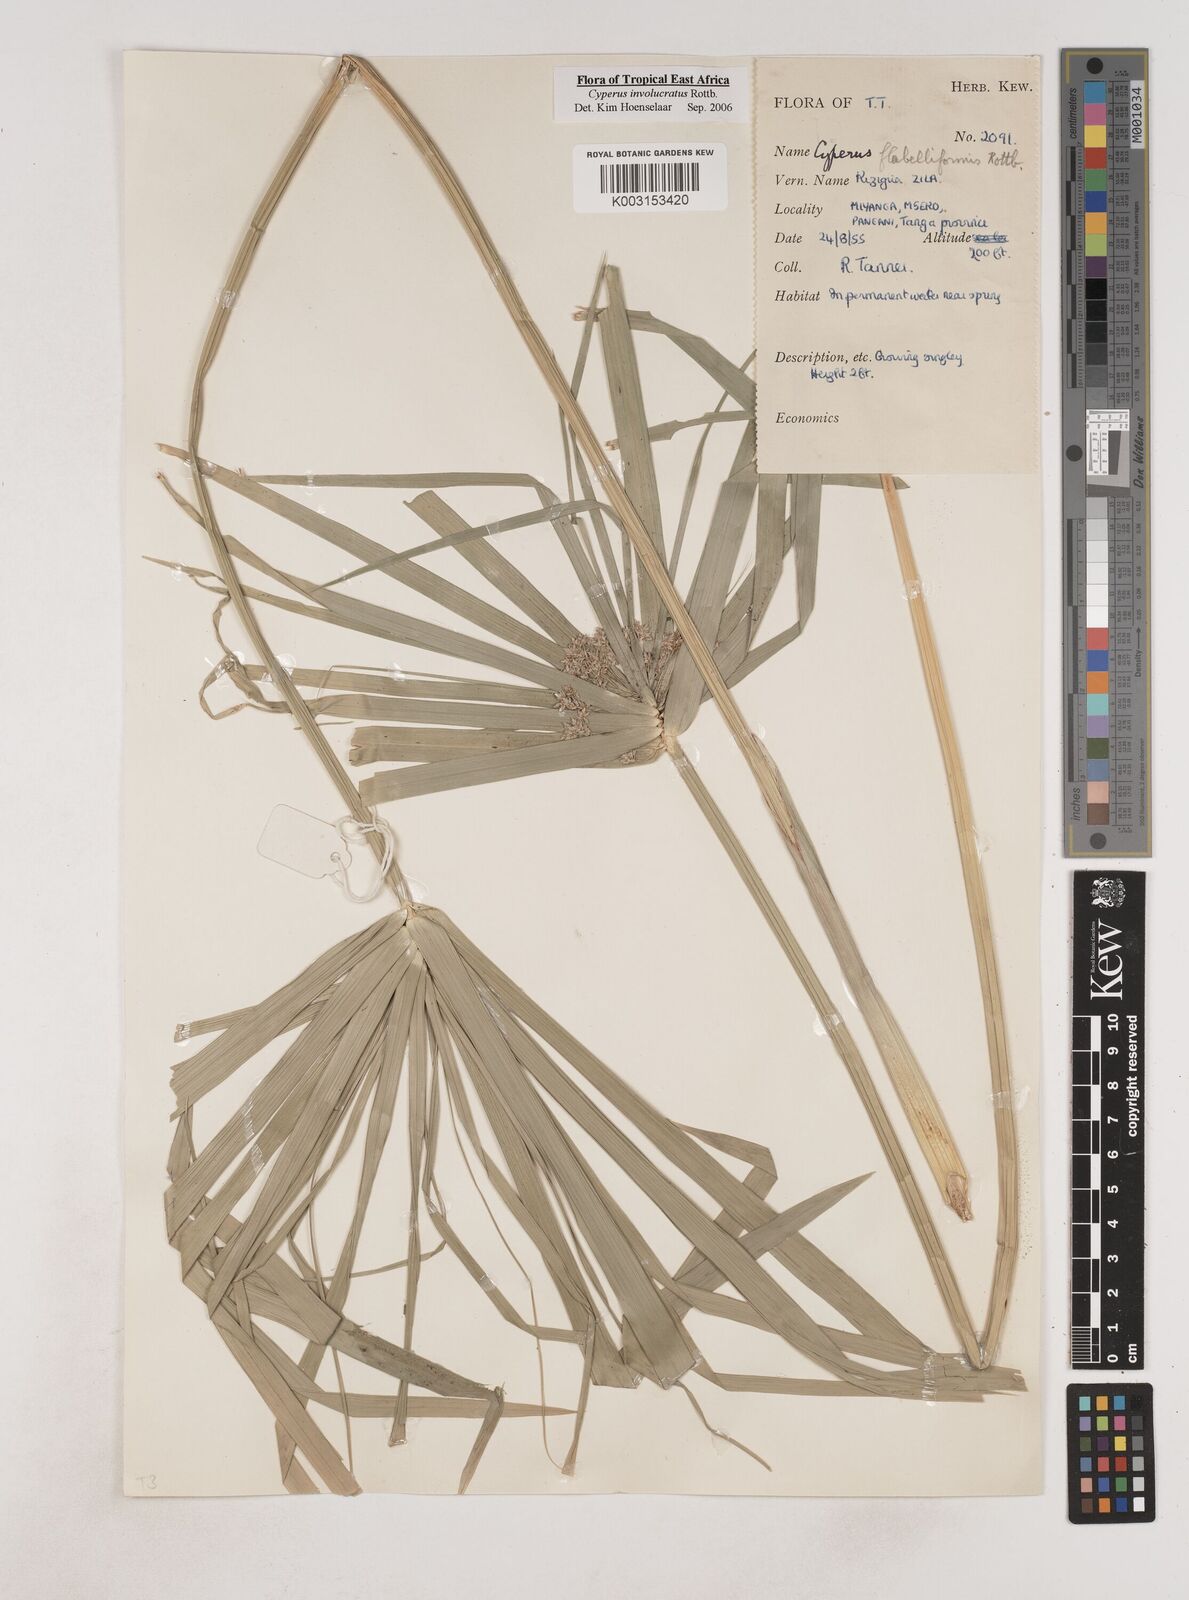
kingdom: Plantae
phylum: Tracheophyta
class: Liliopsida
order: Poales
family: Cyperaceae
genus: Cyperus
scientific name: Cyperus alternifolius
